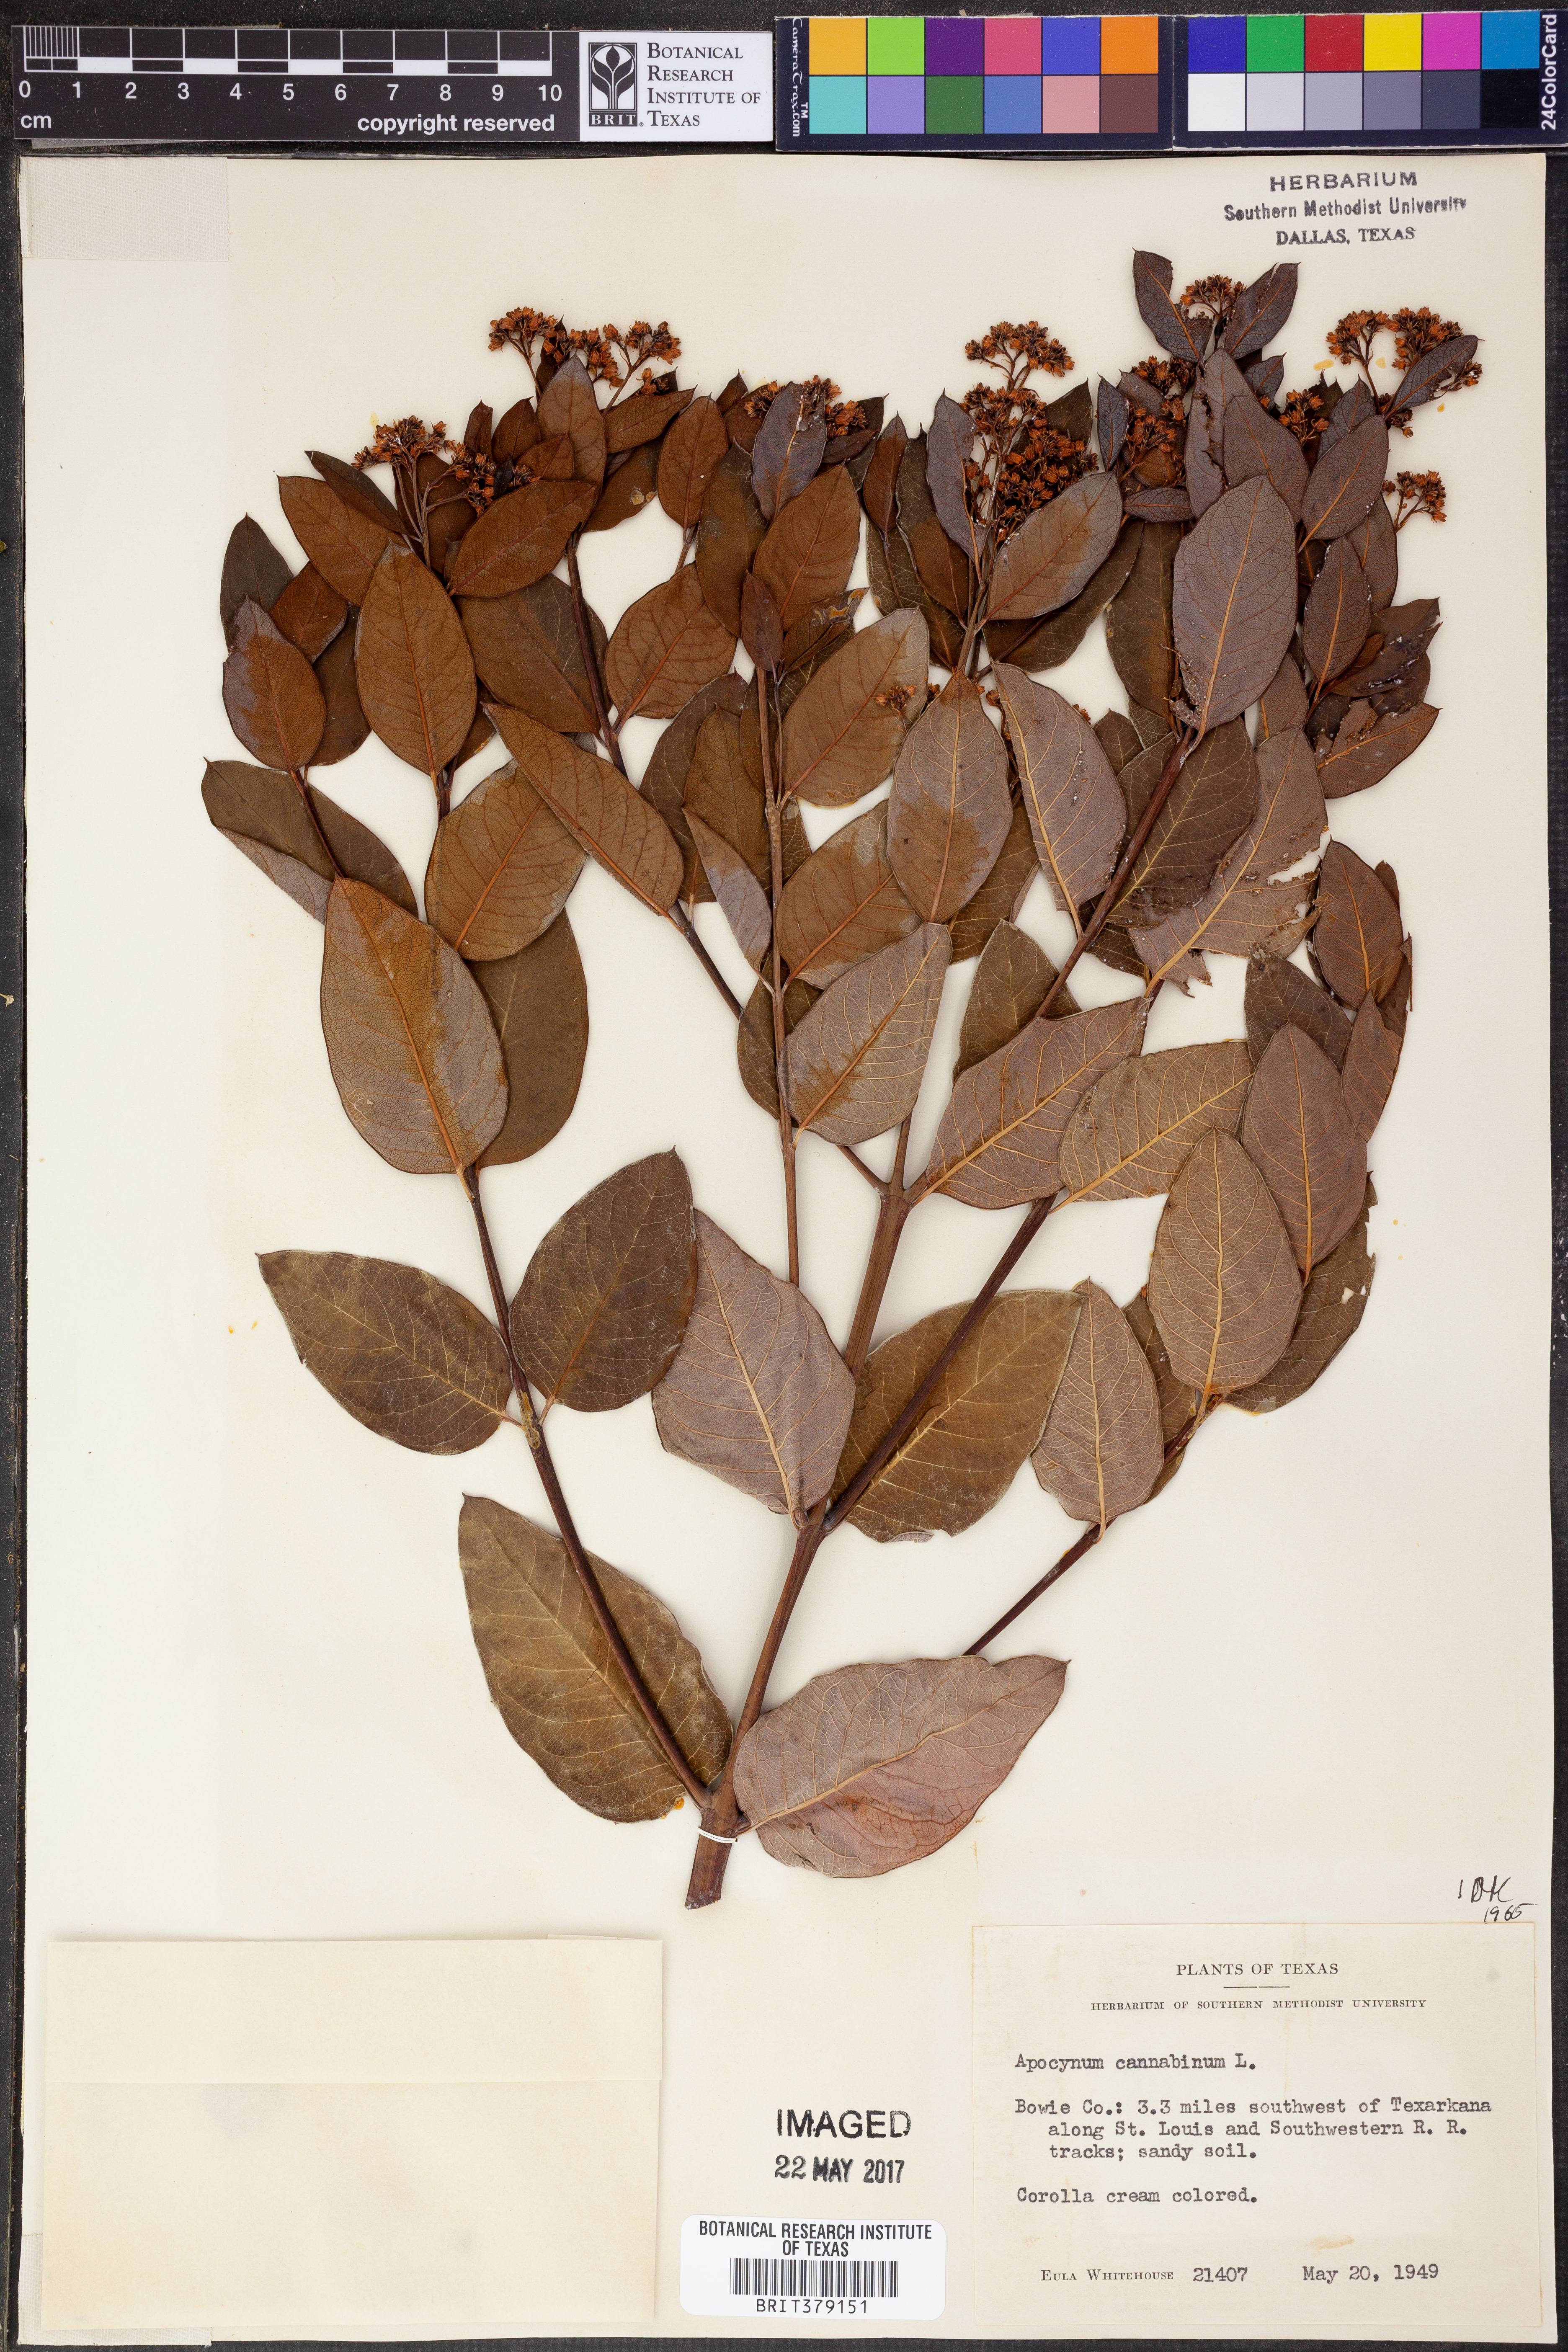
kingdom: Plantae
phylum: Tracheophyta
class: Magnoliopsida
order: Gentianales
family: Apocynaceae
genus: Apocynum
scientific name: Apocynum cannabinum
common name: Hemp dogbane
